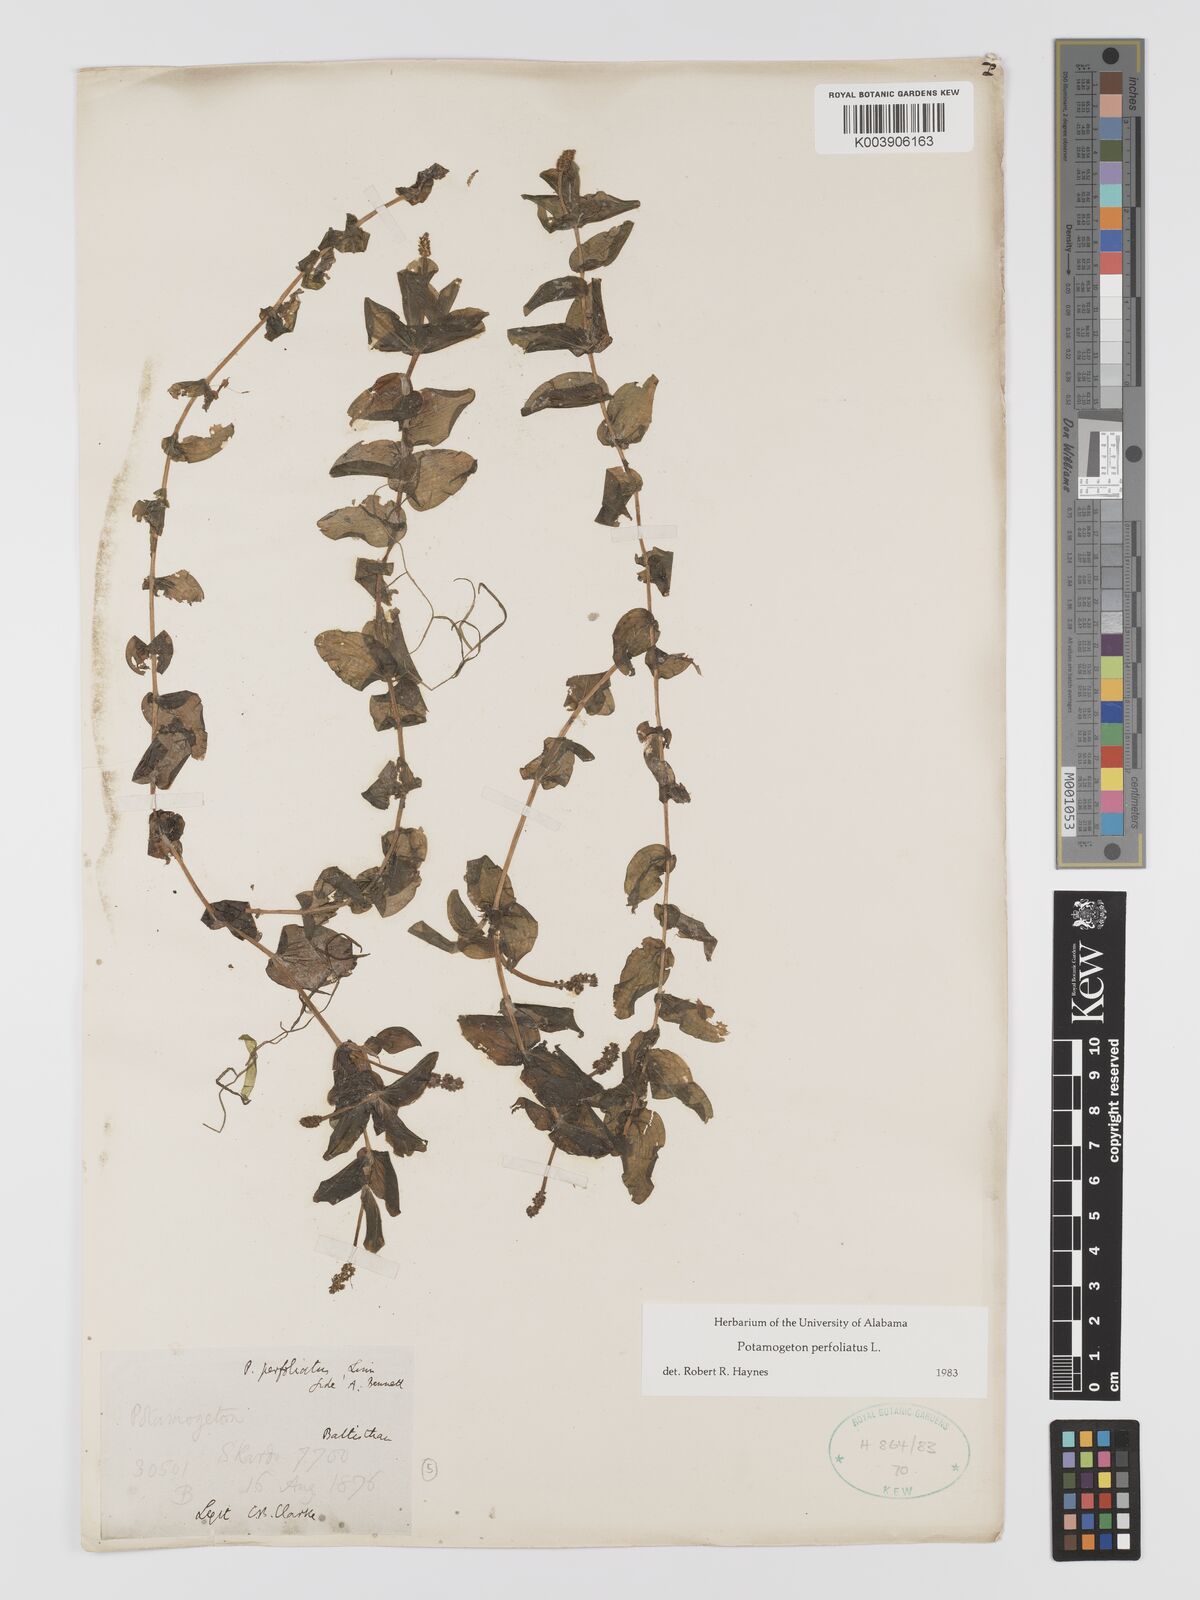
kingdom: Plantae
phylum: Tracheophyta
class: Liliopsida
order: Alismatales
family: Potamogetonaceae
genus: Potamogeton
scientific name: Potamogeton perfoliatus
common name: Perfoliate pondweed
